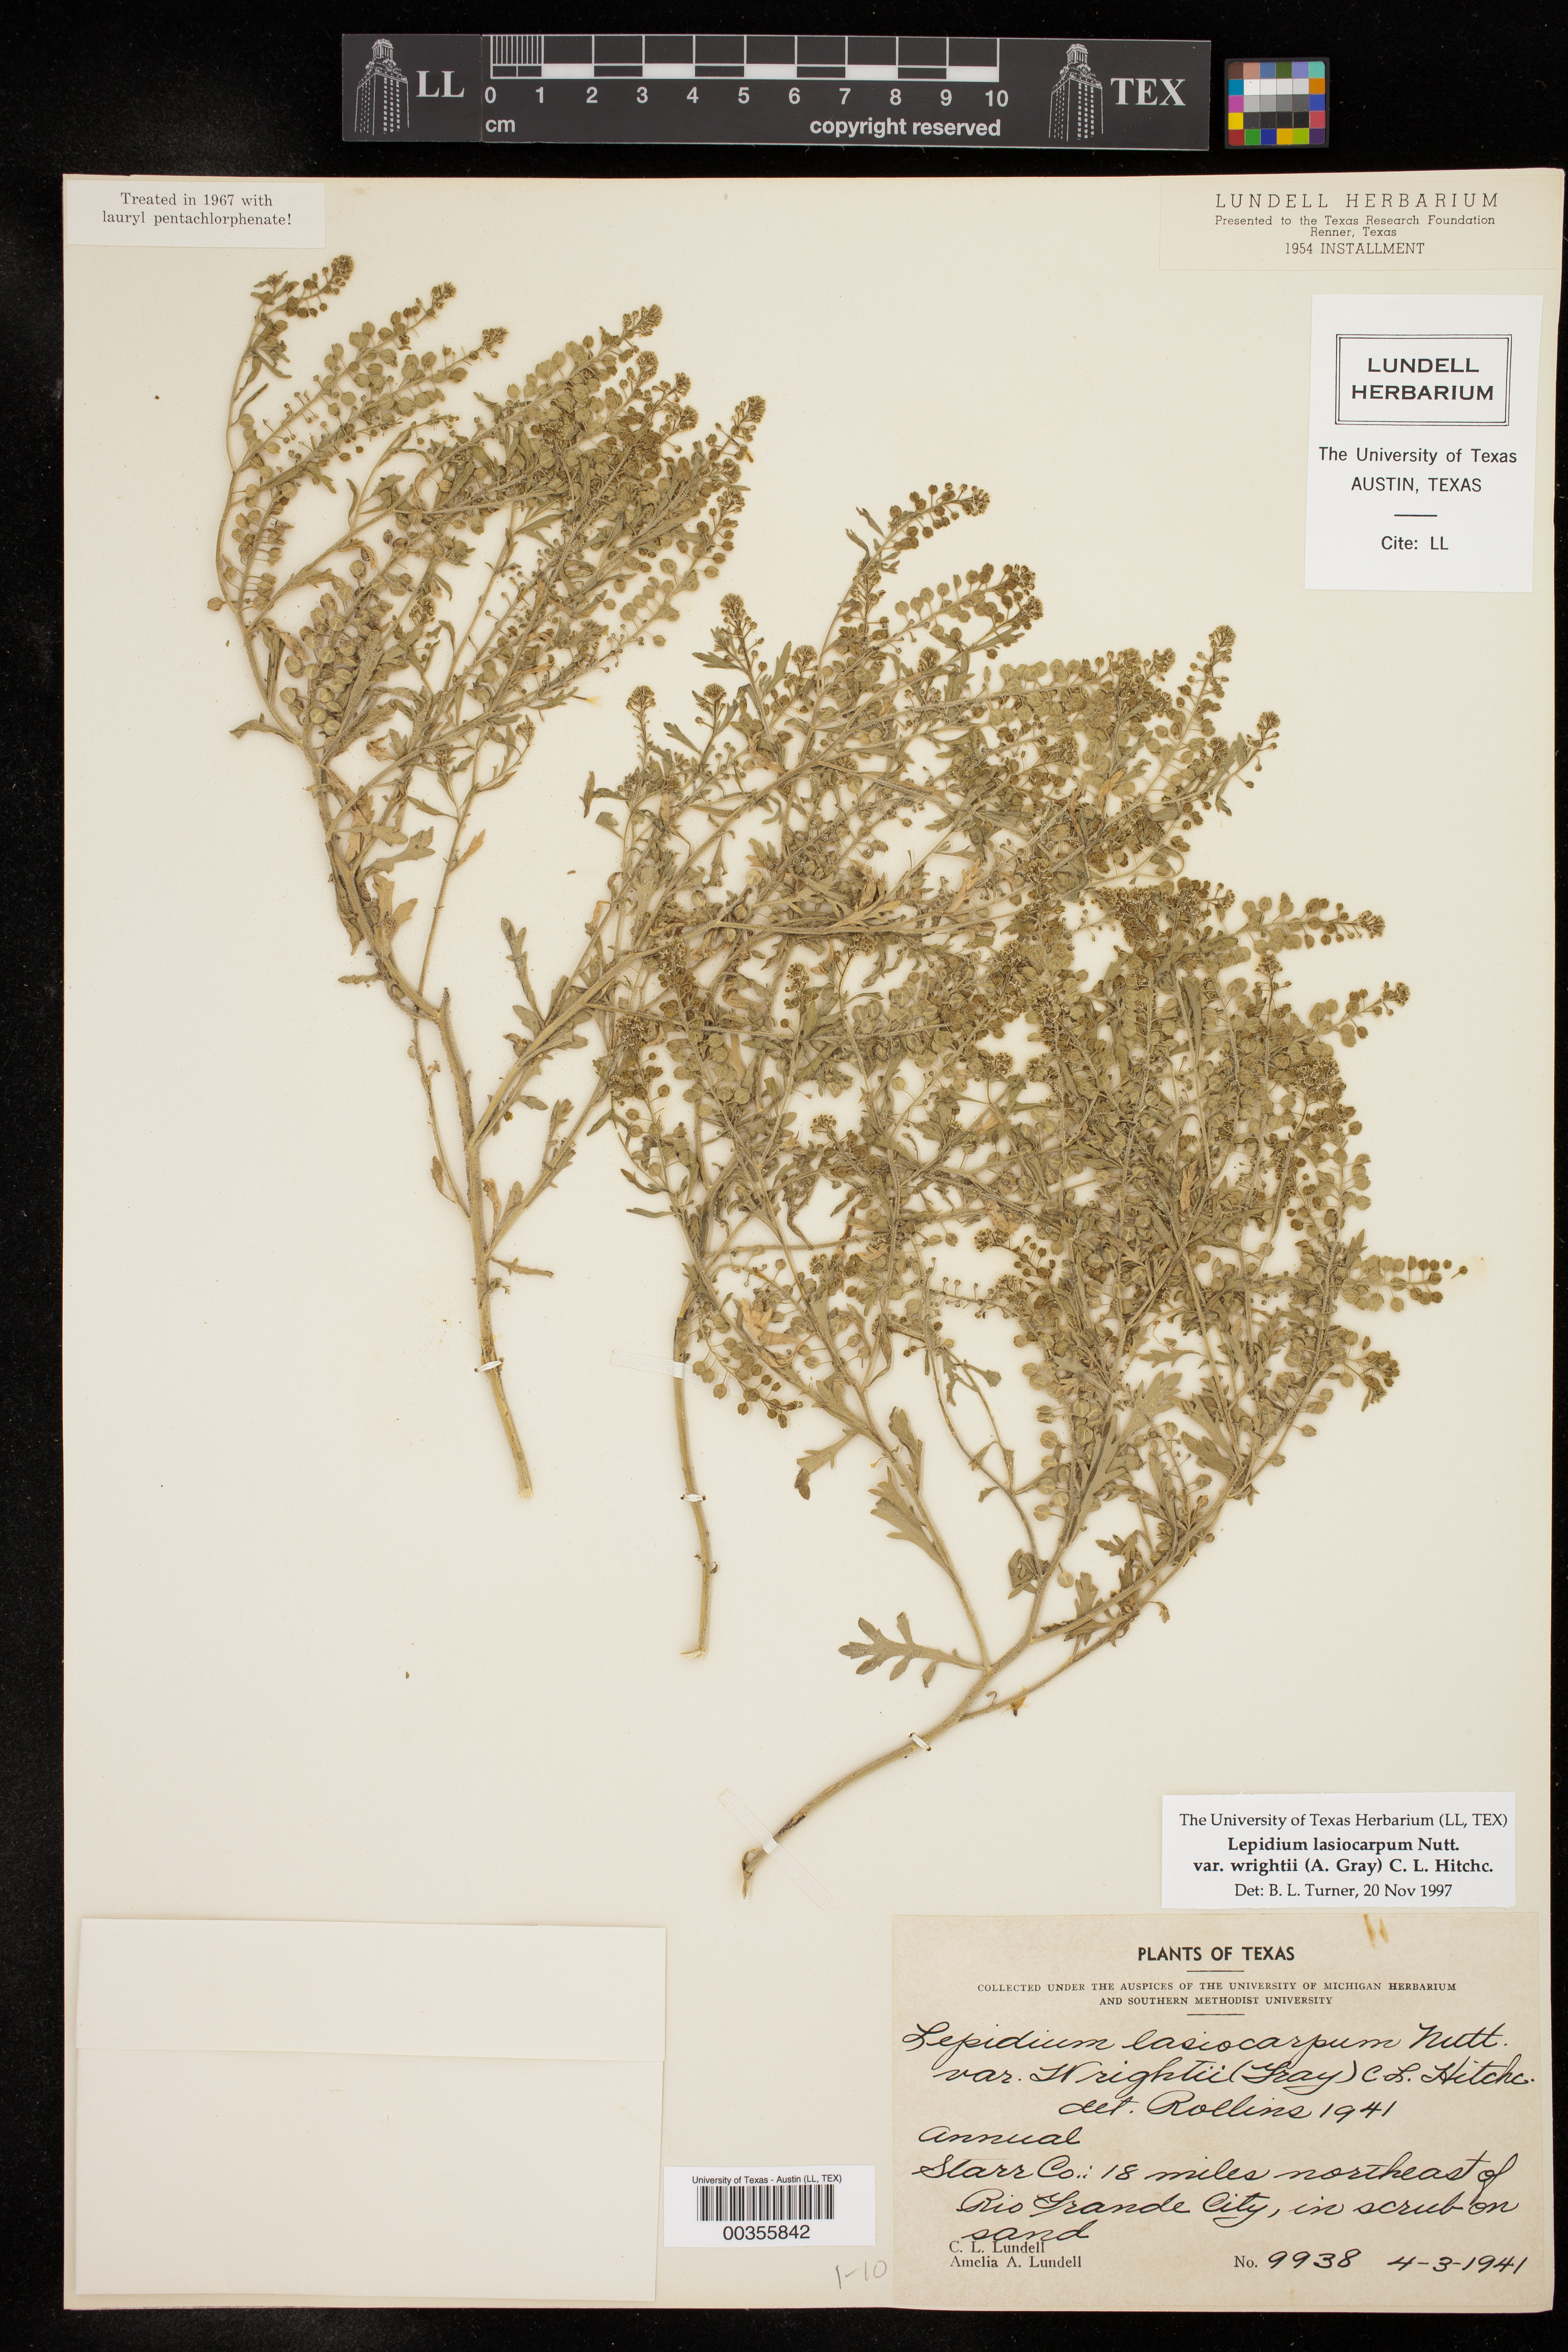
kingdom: Plantae
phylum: Tracheophyta
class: Magnoliopsida
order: Brassicales
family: Brassicaceae
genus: Lepidium
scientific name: Lepidium lasiocarpum
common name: Hairy-pod pepperwort
